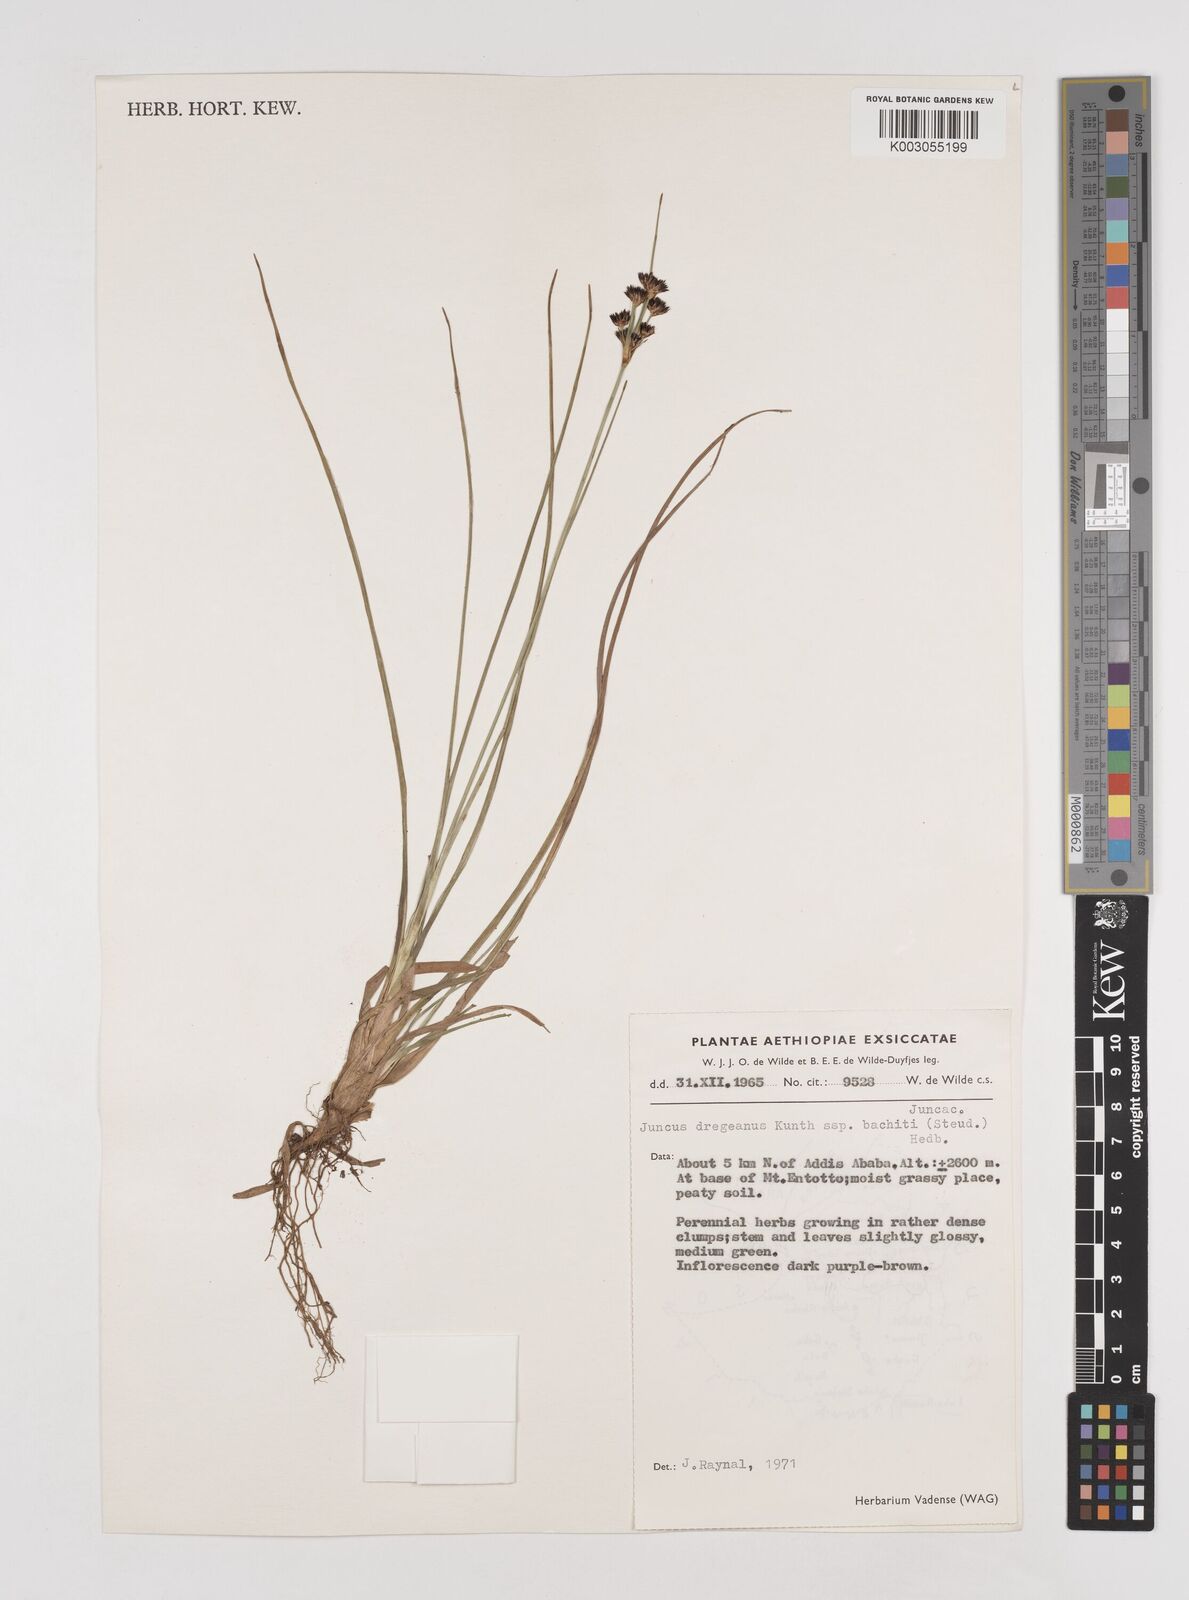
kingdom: Plantae
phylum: Tracheophyta
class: Liliopsida
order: Poales
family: Juncaceae
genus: Juncus
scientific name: Juncus dregeanus
